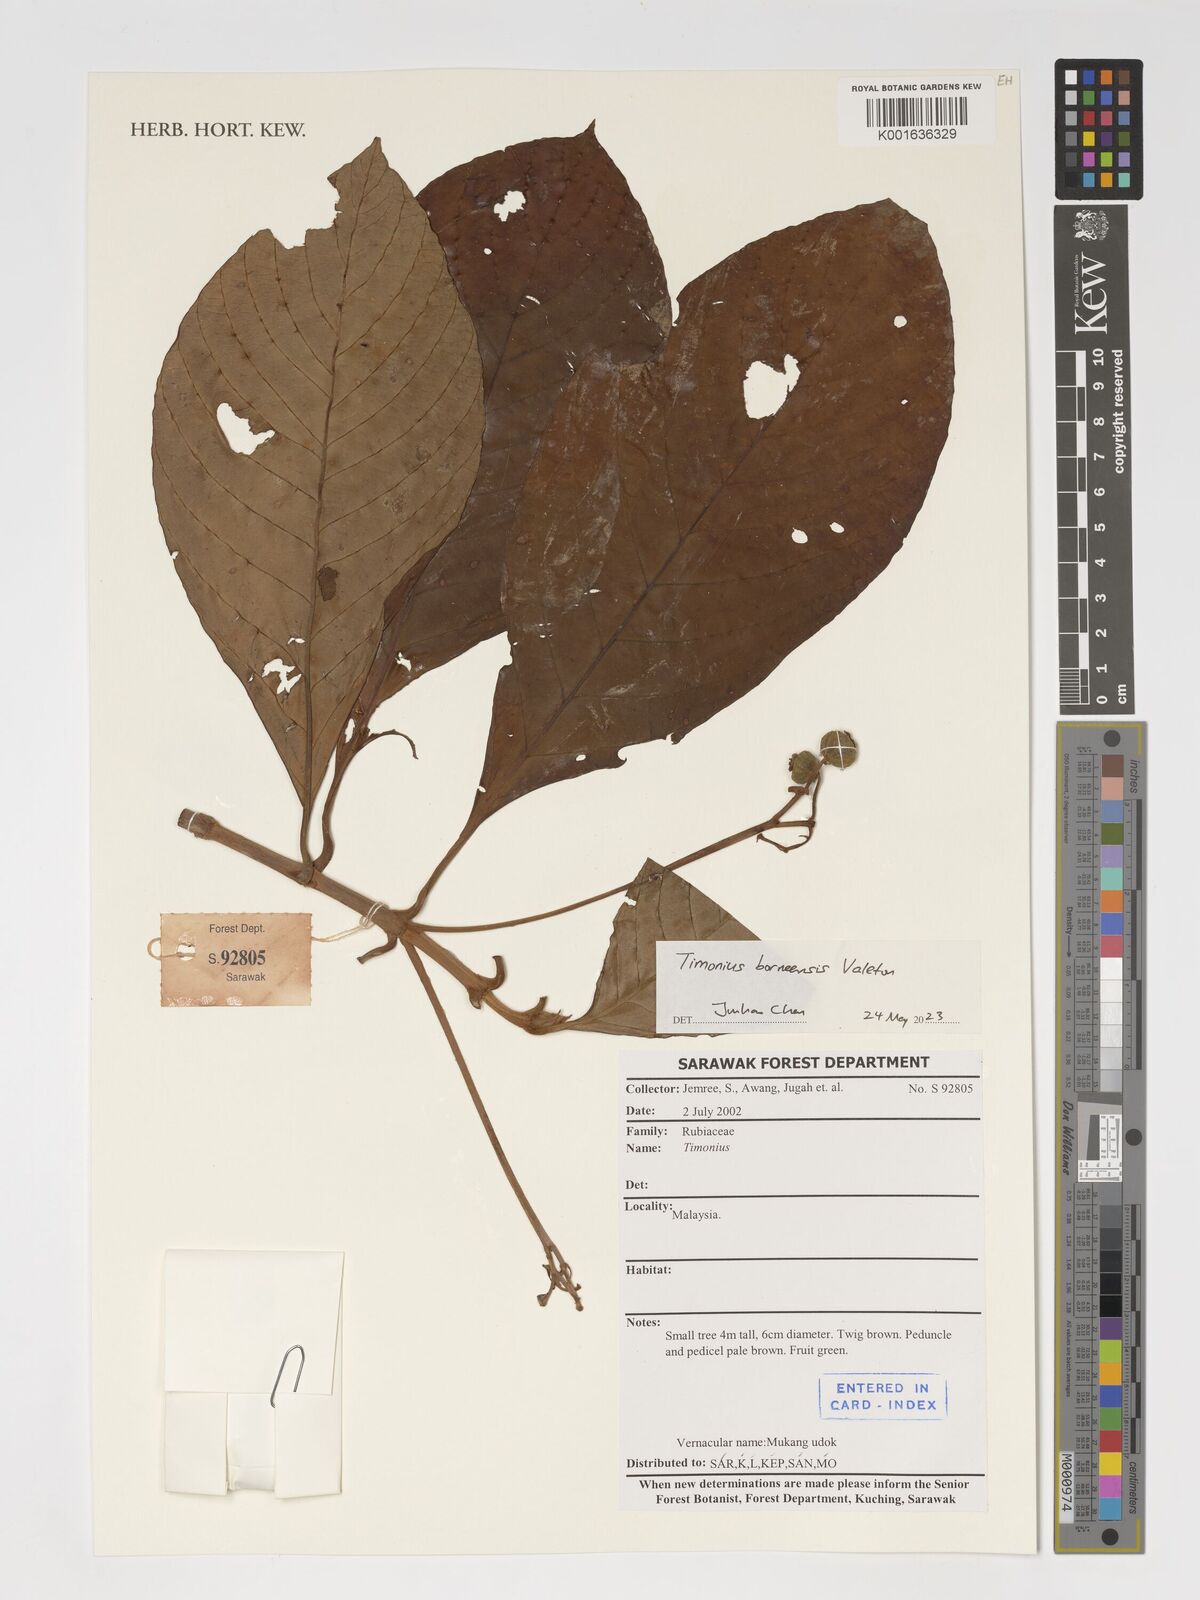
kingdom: Plantae
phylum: Tracheophyta
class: Magnoliopsida
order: Gentianales
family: Rubiaceae
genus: Timonius
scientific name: Timonius borneensis
